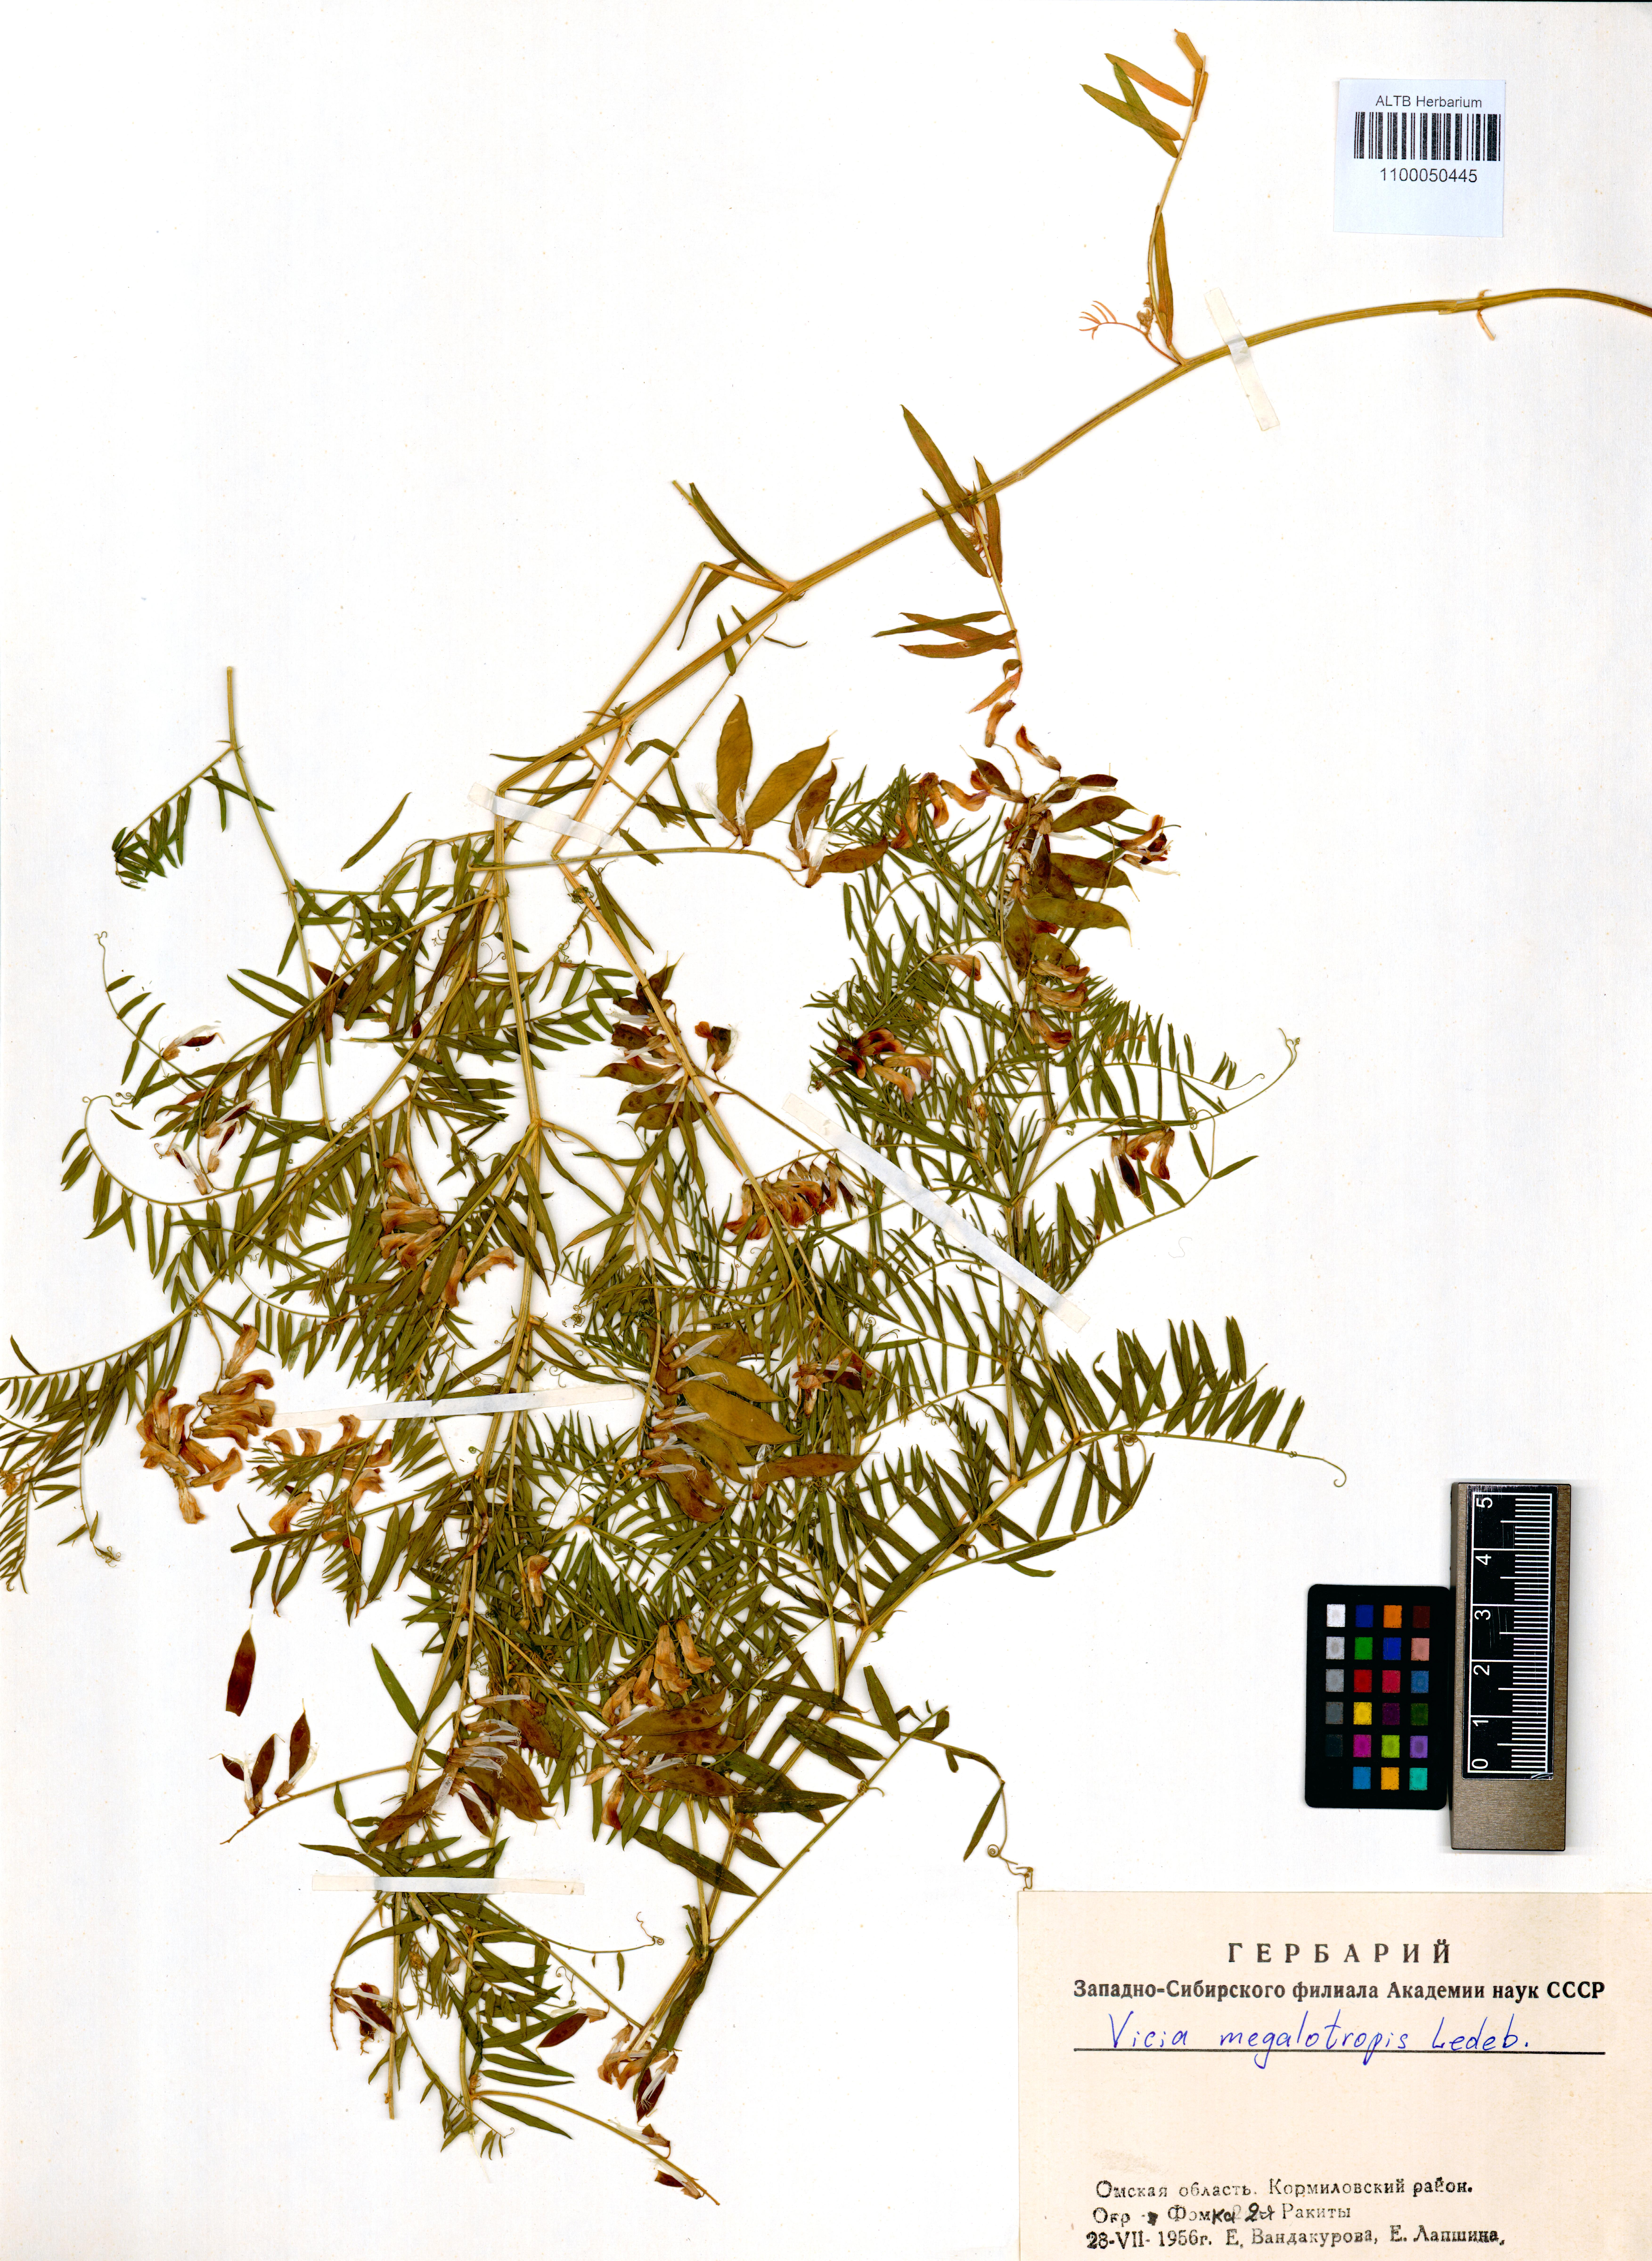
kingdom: Plantae
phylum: Tracheophyta
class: Magnoliopsida
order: Fabales
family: Fabaceae
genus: Vicia
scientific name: Vicia megalotropis
